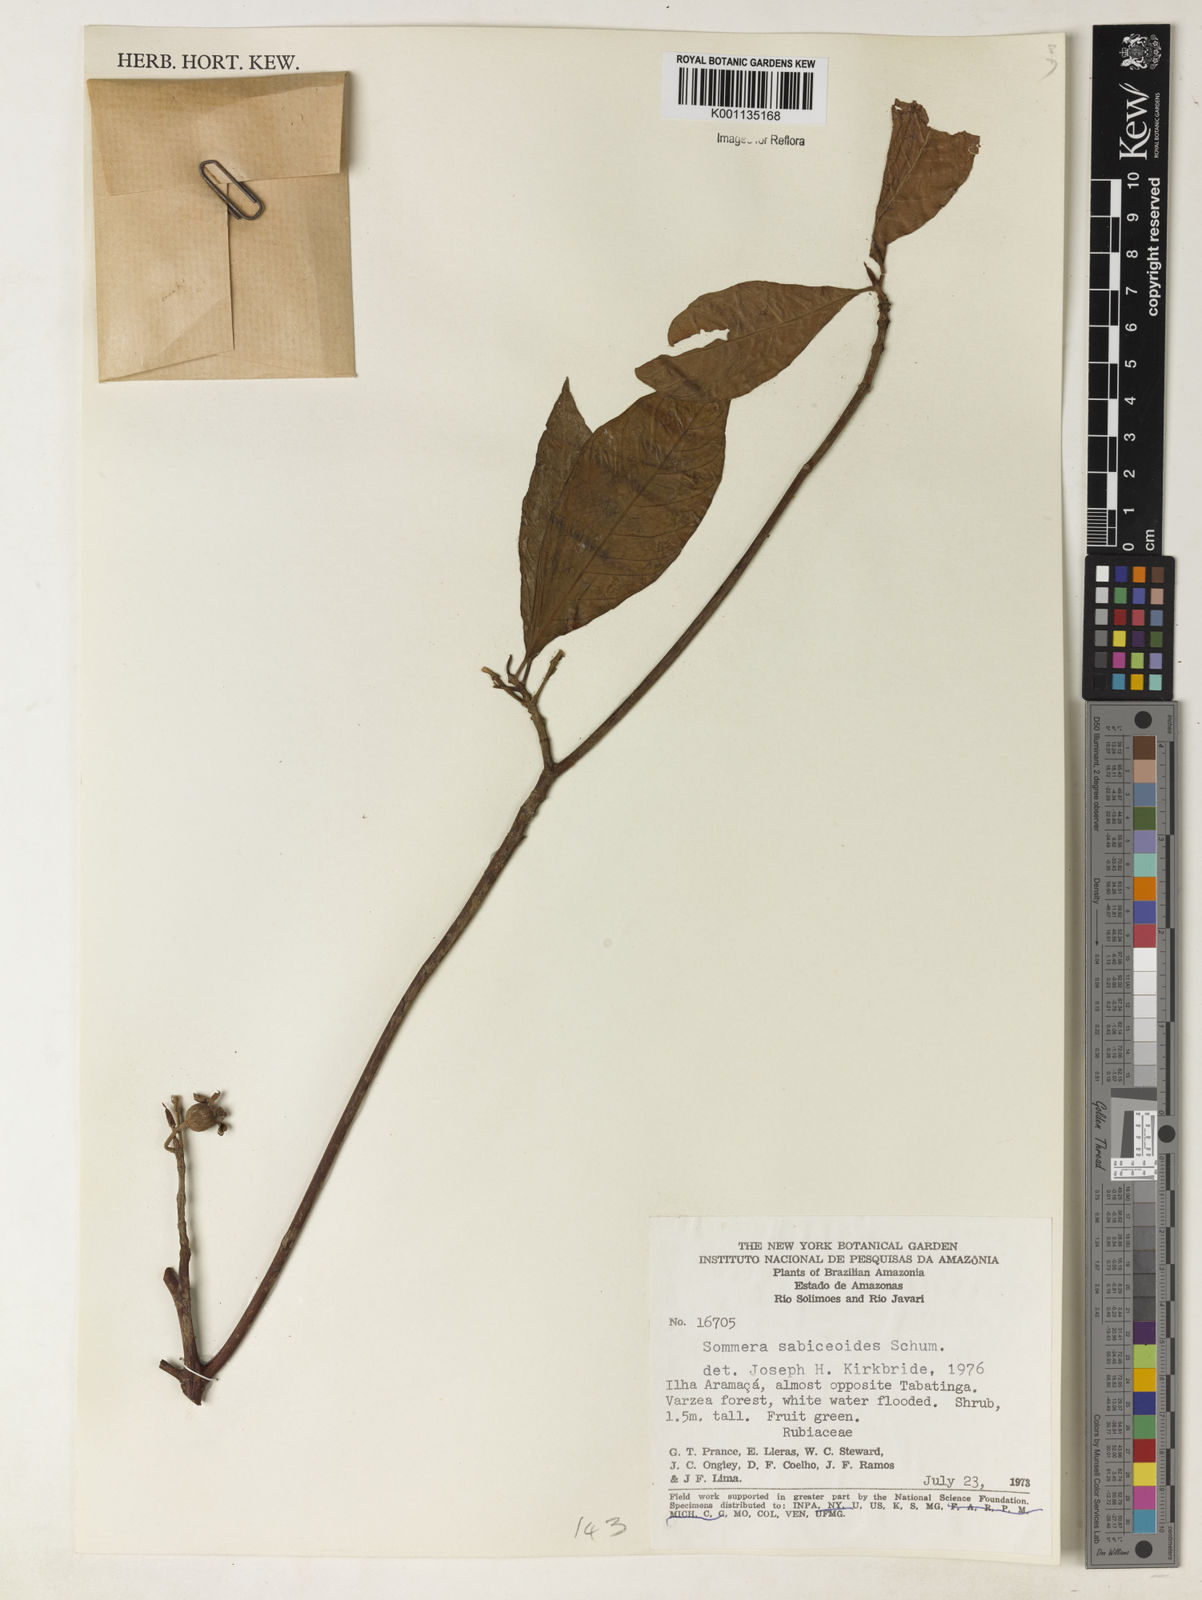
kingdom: Plantae
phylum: Tracheophyta
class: Magnoliopsida
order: Gentianales
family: Rubiaceae
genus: Sommera
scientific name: Sommera sabiceoides
